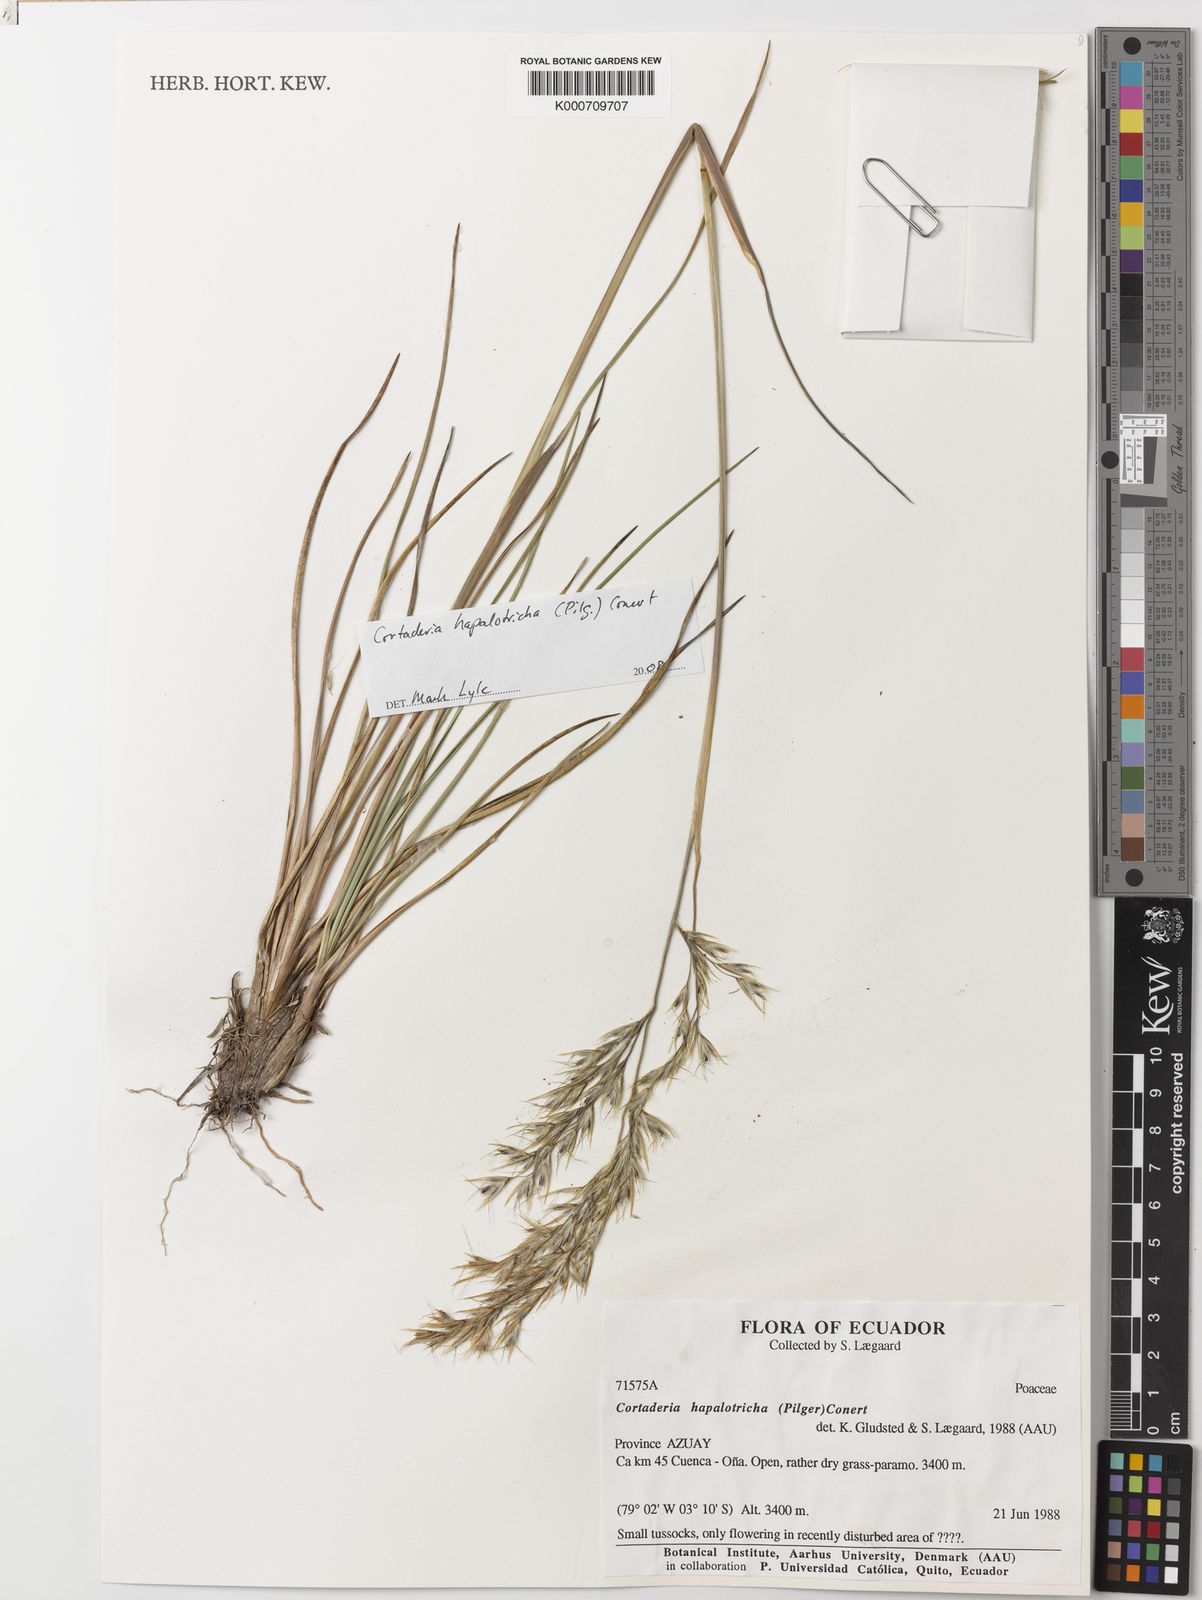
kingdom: Plantae
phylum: Tracheophyta
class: Liliopsida
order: Poales
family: Poaceae
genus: Cortaderia
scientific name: Cortaderia hapalotricha
